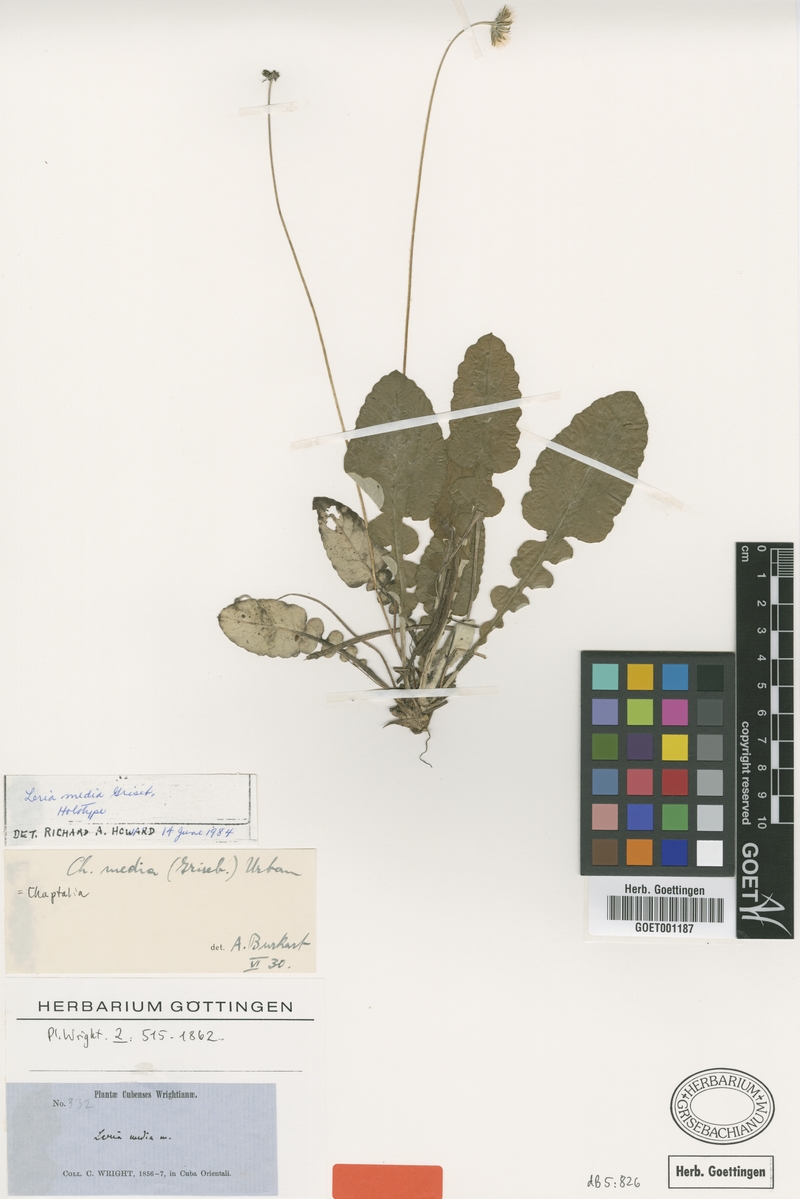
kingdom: Plantae
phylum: Tracheophyta
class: Magnoliopsida
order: Asterales
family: Asteraceae
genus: Chaptalia
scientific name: Chaptalia media
